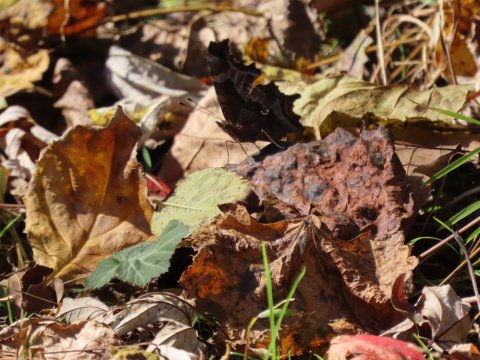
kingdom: Animalia
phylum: Arthropoda
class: Insecta
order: Lepidoptera
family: Nymphalidae
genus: Polygonia
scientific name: Polygonia comma
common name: Eastern Comma
